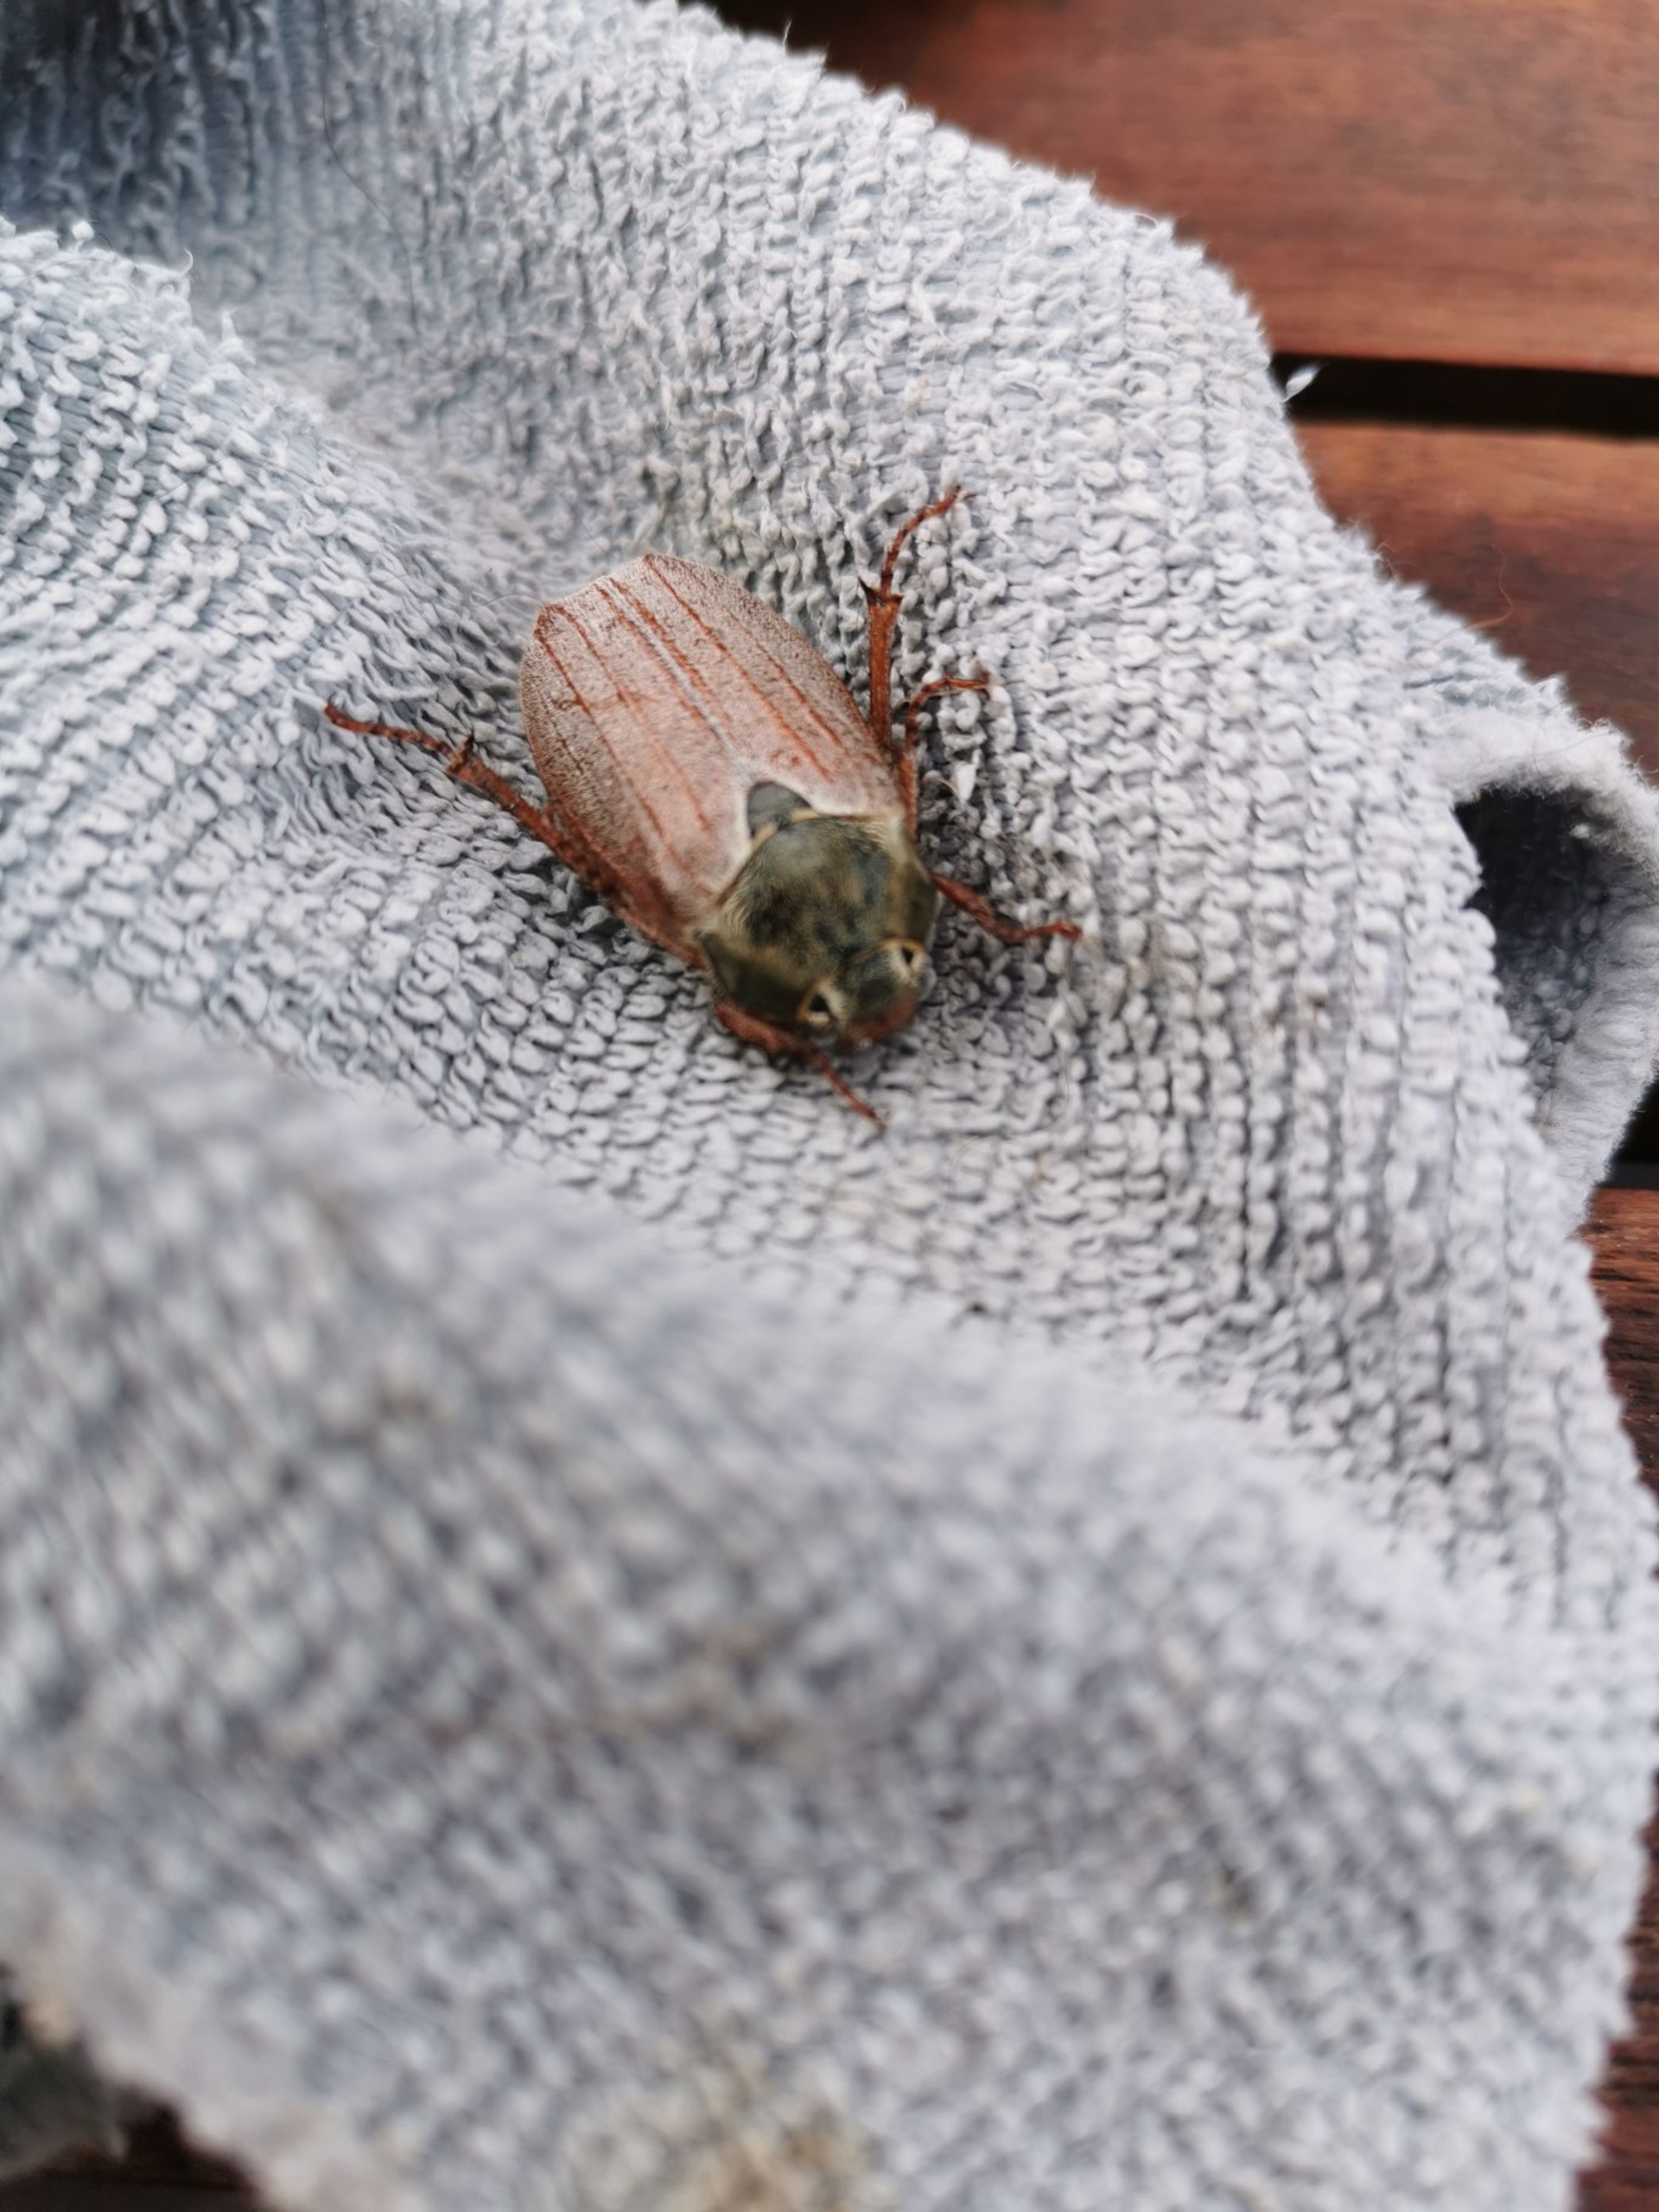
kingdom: Animalia
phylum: Arthropoda
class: Insecta
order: Coleoptera
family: Scarabaeidae
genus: Melolontha
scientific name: Melolontha melolontha
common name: Almindelig oldenborre
